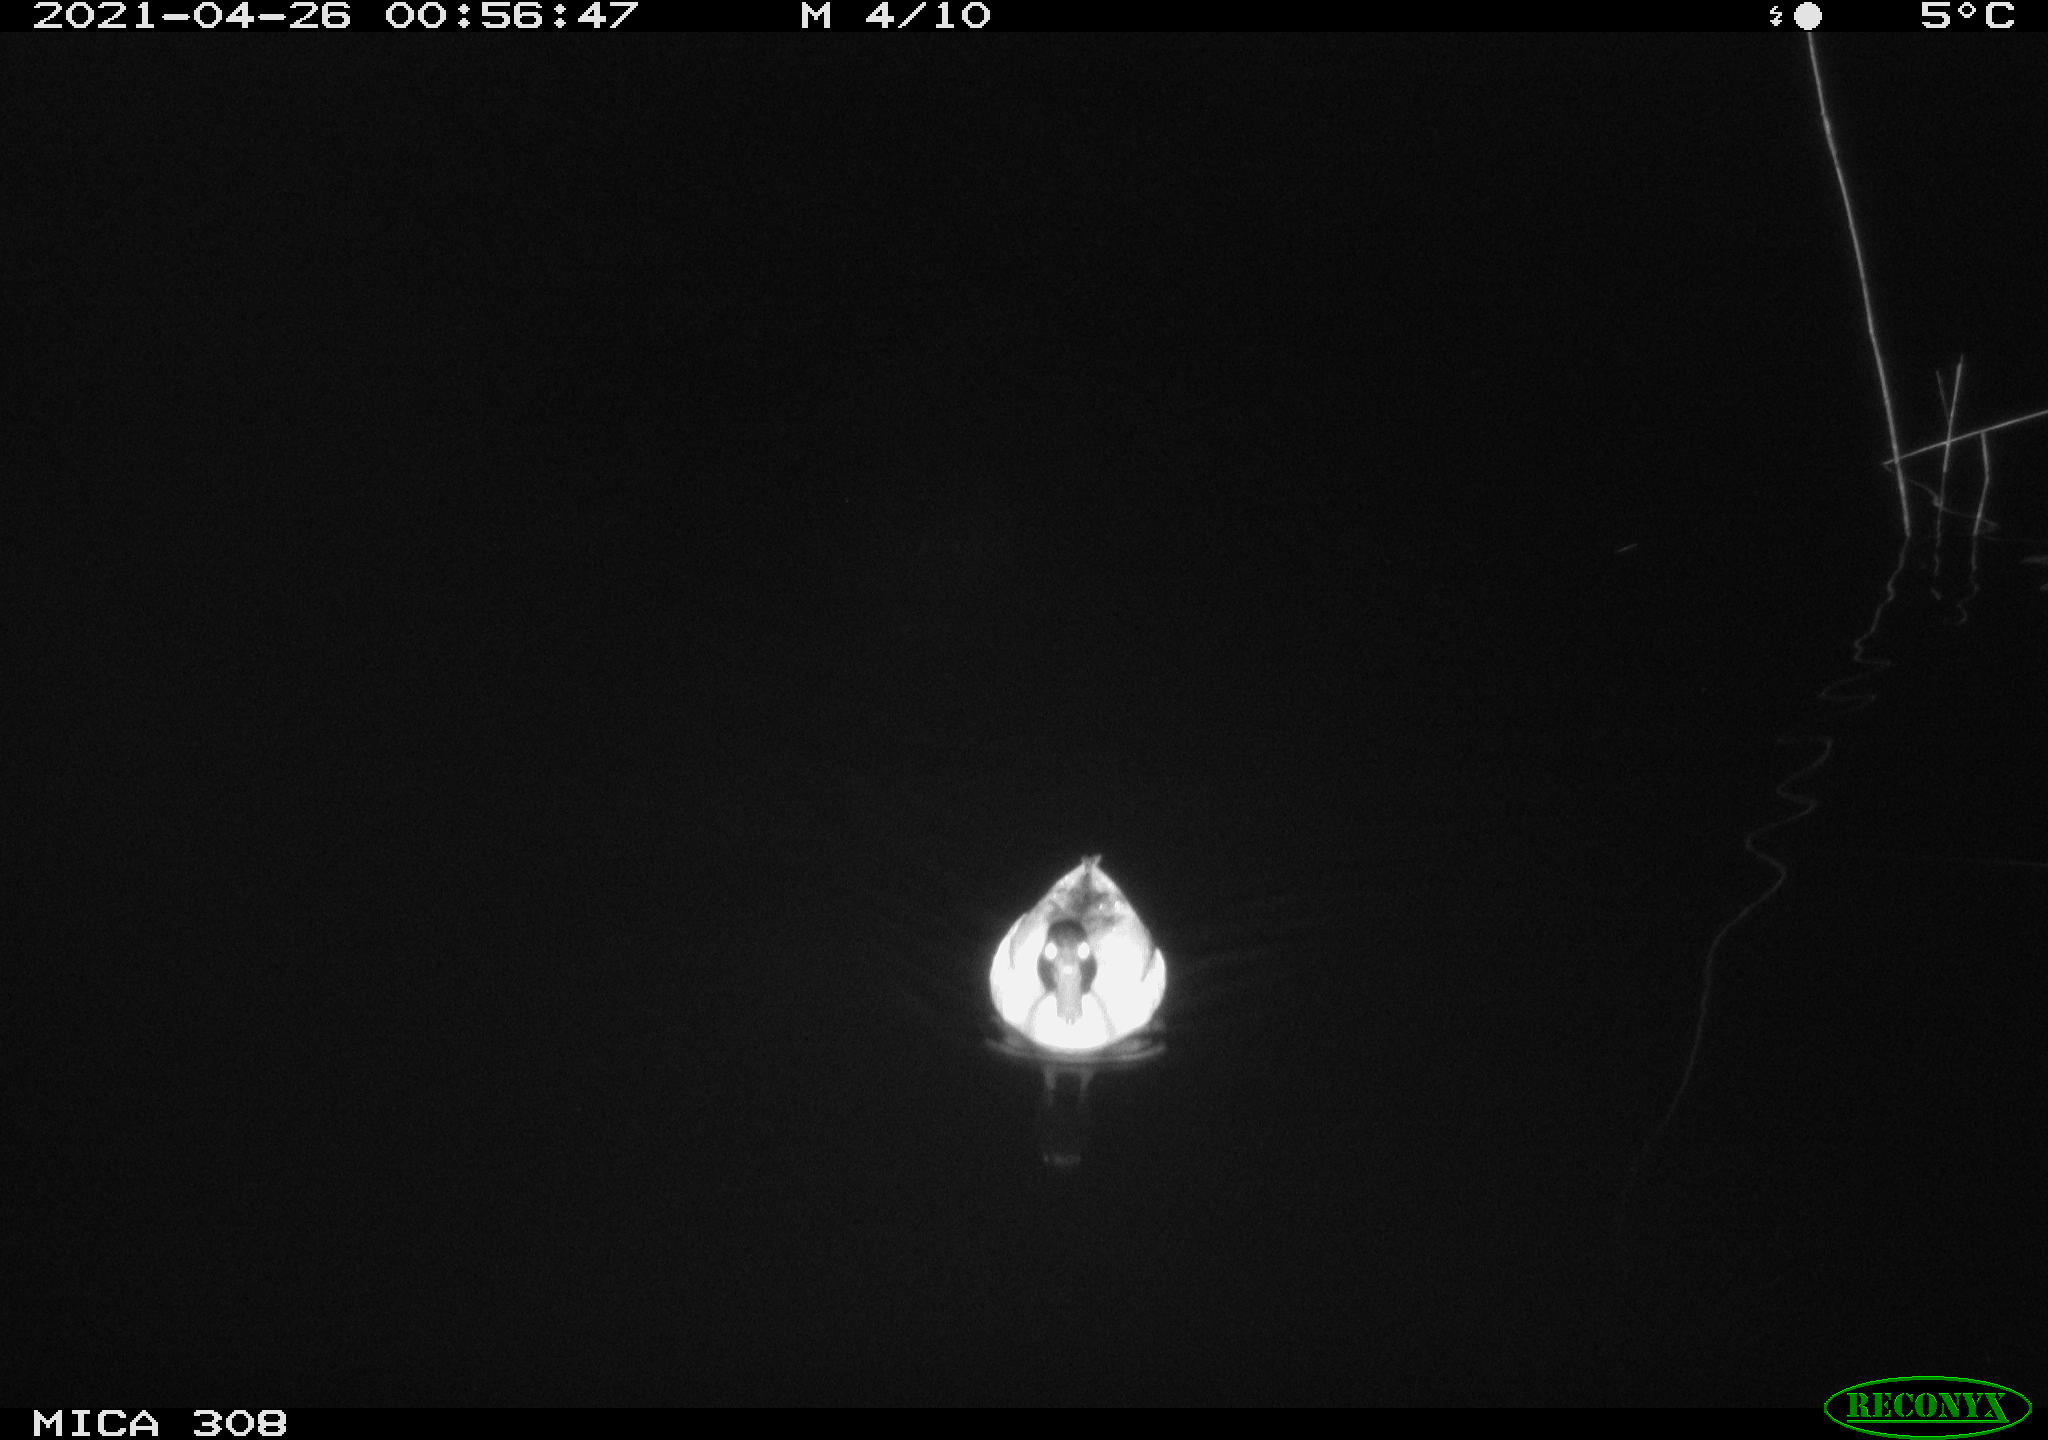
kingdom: Animalia
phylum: Chordata
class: Aves
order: Anseriformes
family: Anatidae
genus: Anas
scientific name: Anas platyrhynchos
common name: Mallard
